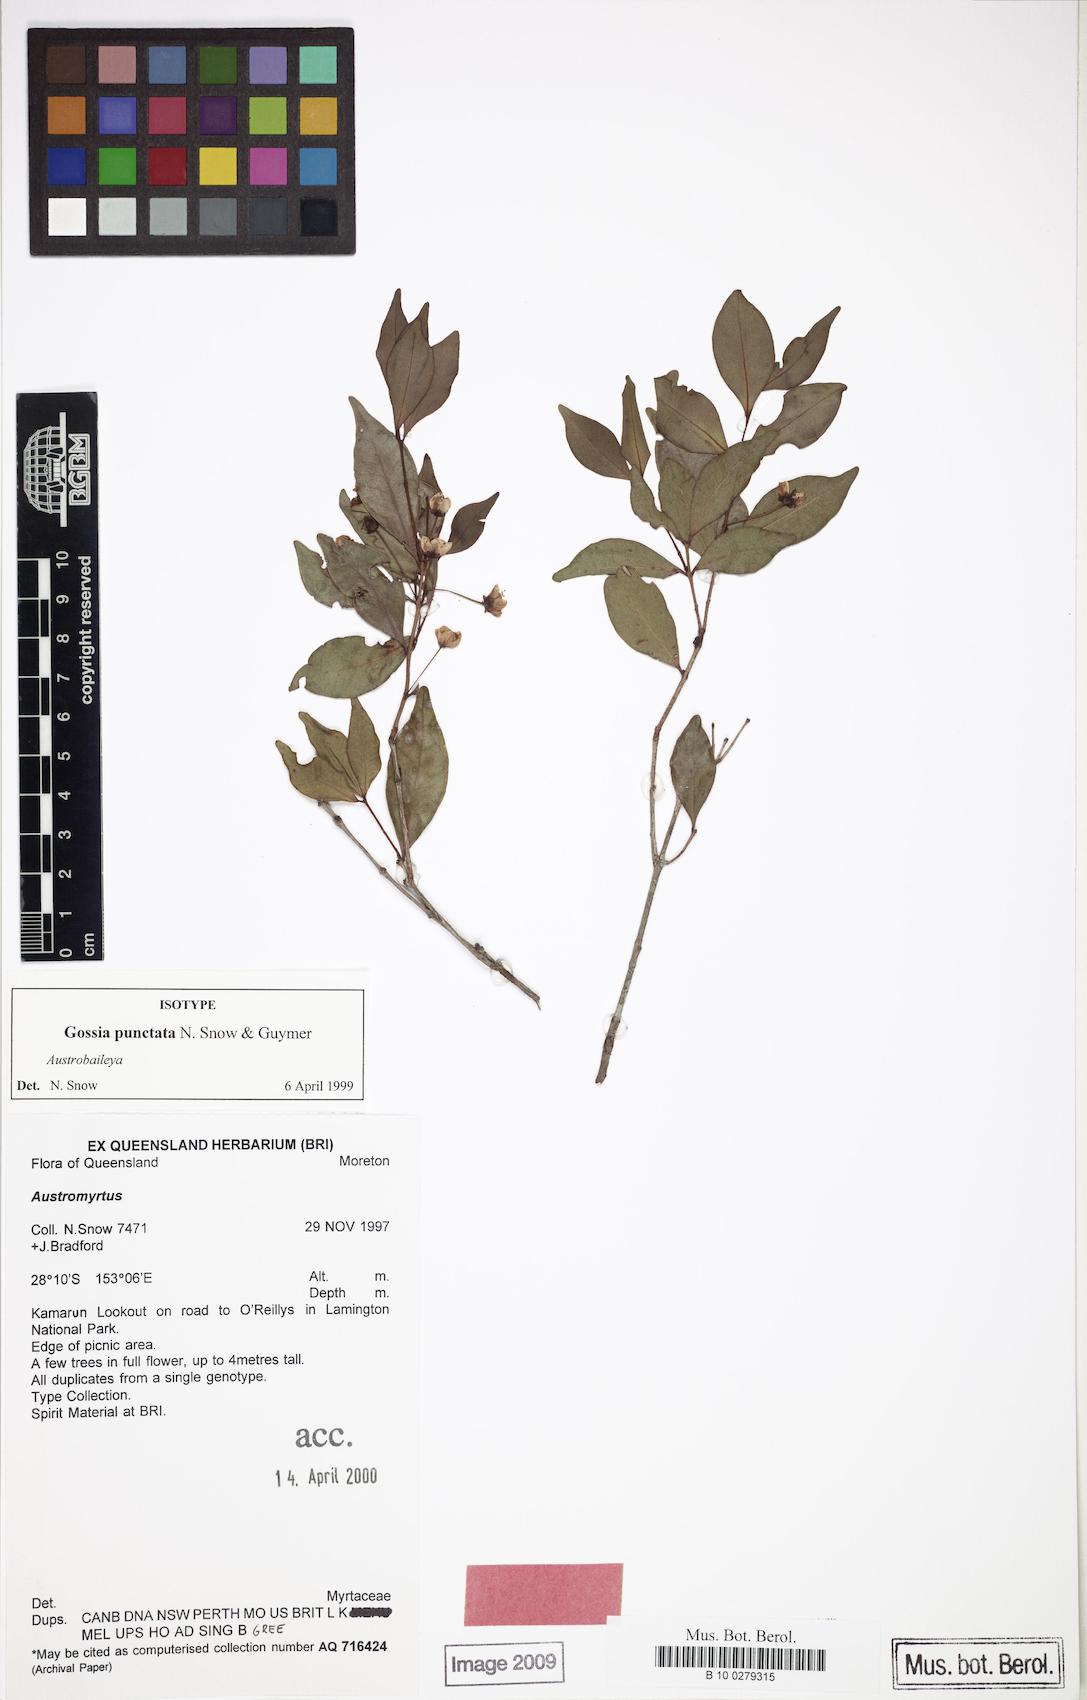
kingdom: Plantae
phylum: Tracheophyta
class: Magnoliopsida
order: Myrtales
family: Myrtaceae
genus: Gossia
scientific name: Gossia punctata
